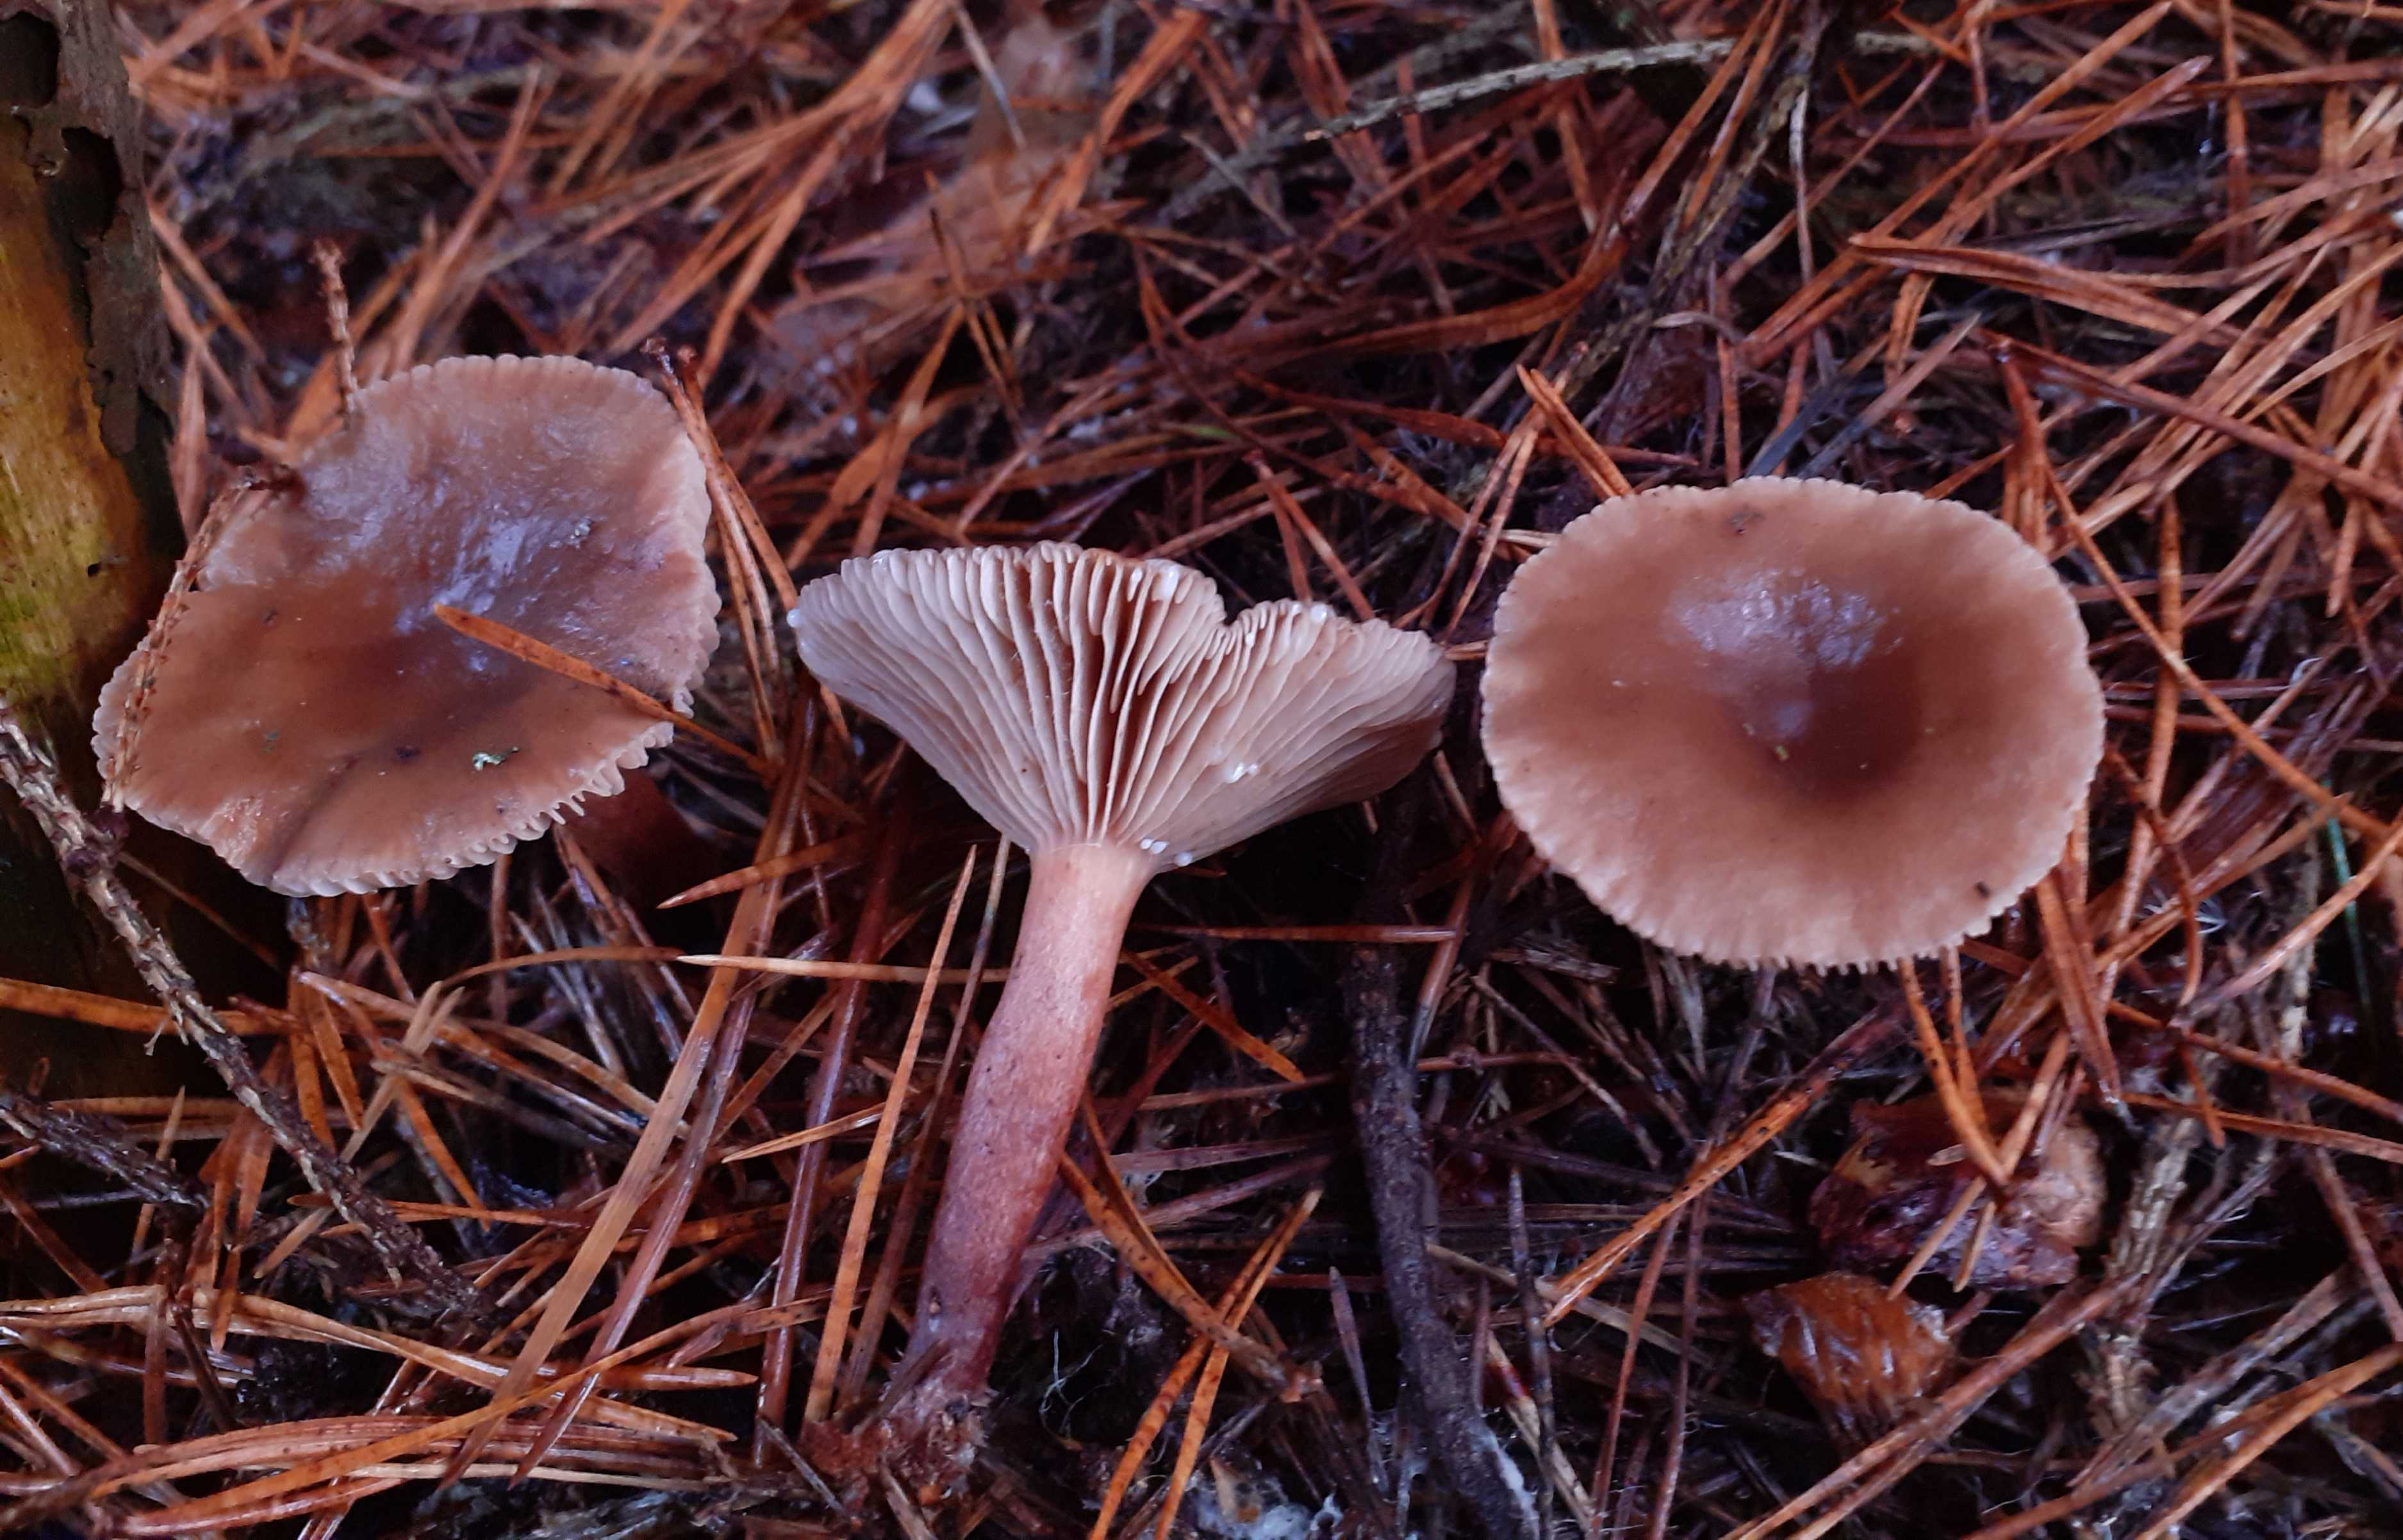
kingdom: Fungi
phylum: Basidiomycota
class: Agaricomycetes
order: Russulales
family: Russulaceae
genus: Lactarius
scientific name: Lactarius hepaticus
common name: leverbrun mælkehat
